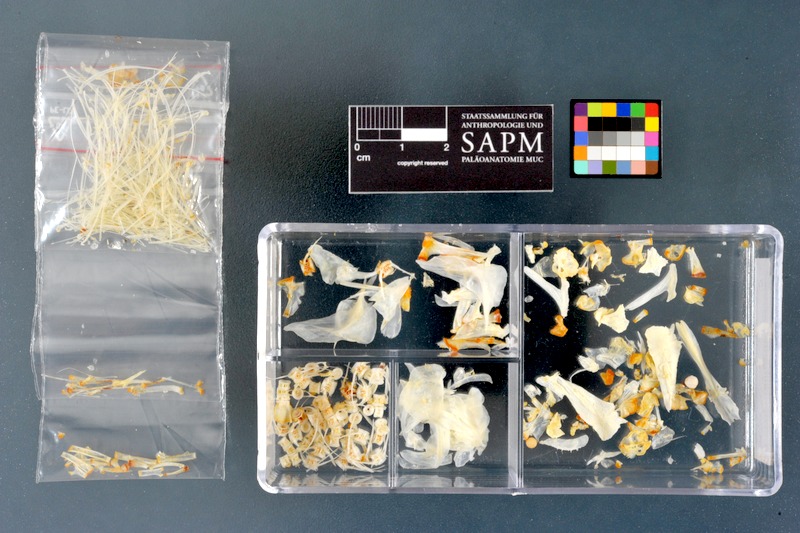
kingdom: Animalia
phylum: Chordata
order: Salmoniformes
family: Salmonidae
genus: Thymallus
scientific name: Thymallus thymallus
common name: Grayling
